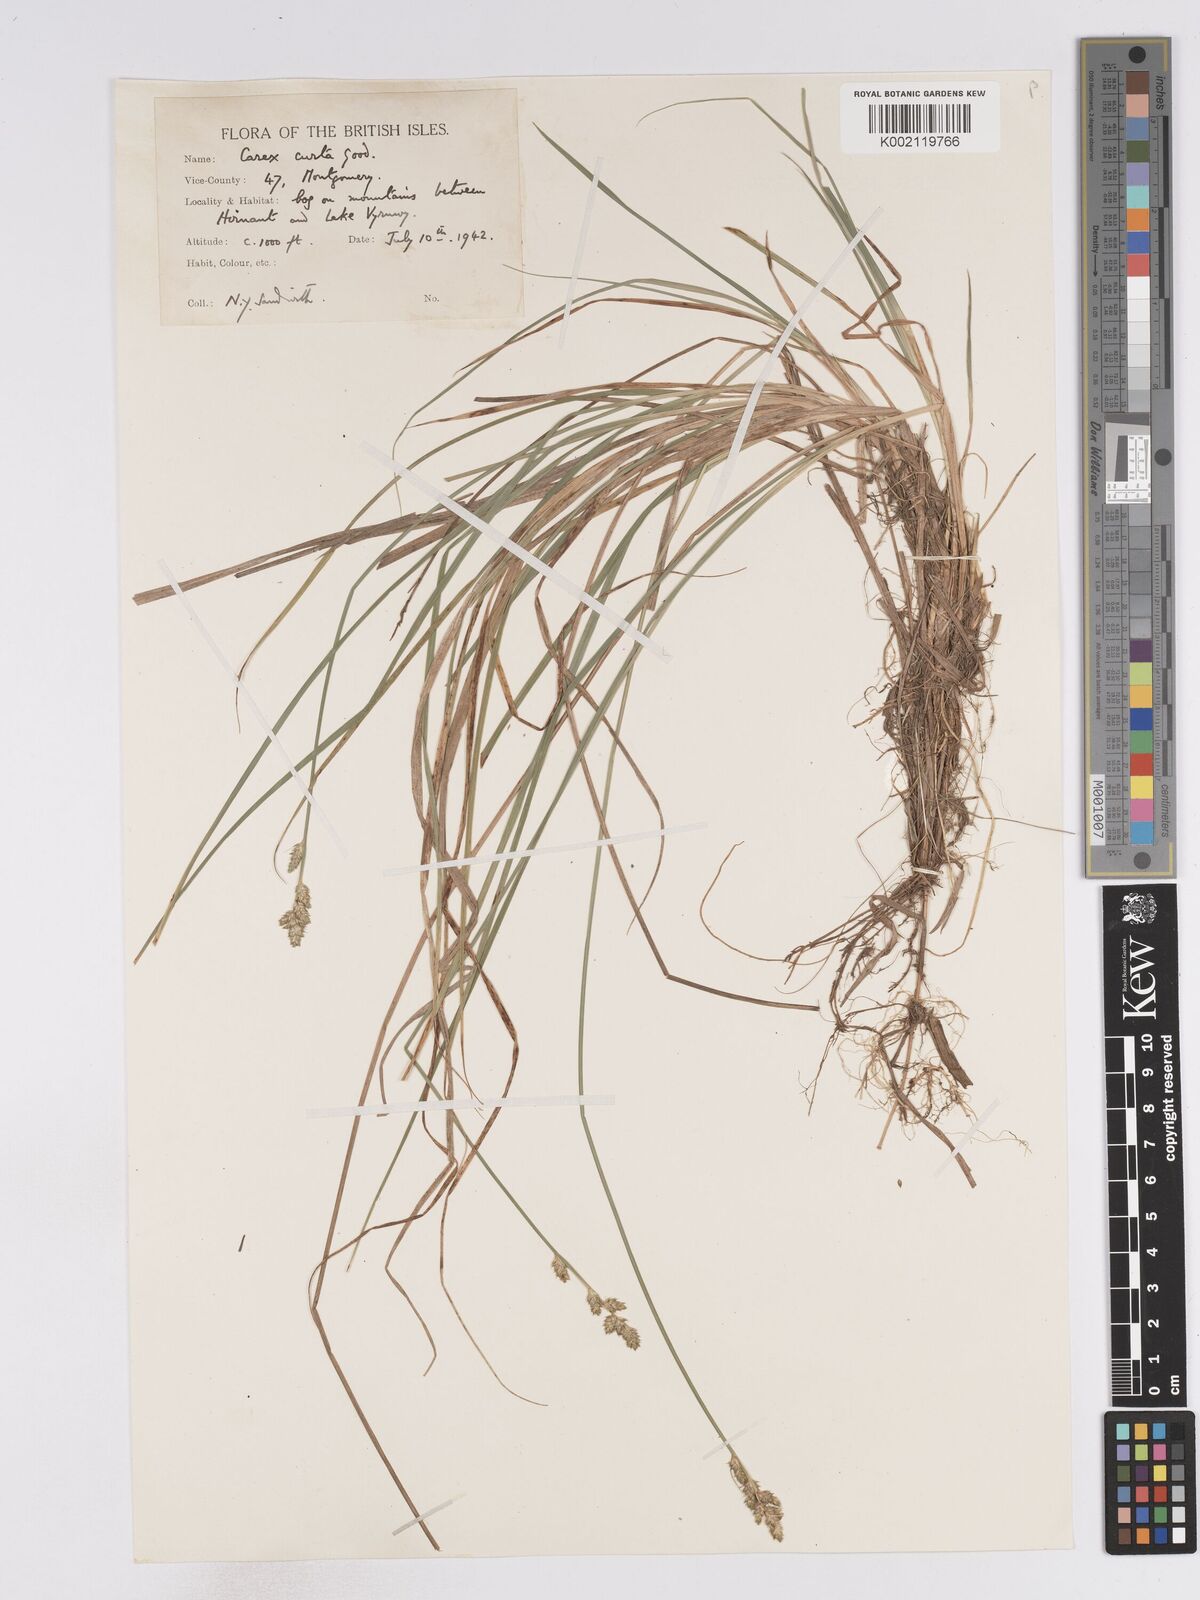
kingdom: Plantae
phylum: Tracheophyta
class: Liliopsida
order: Poales
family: Cyperaceae
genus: Carex
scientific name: Carex curta
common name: White sedge
